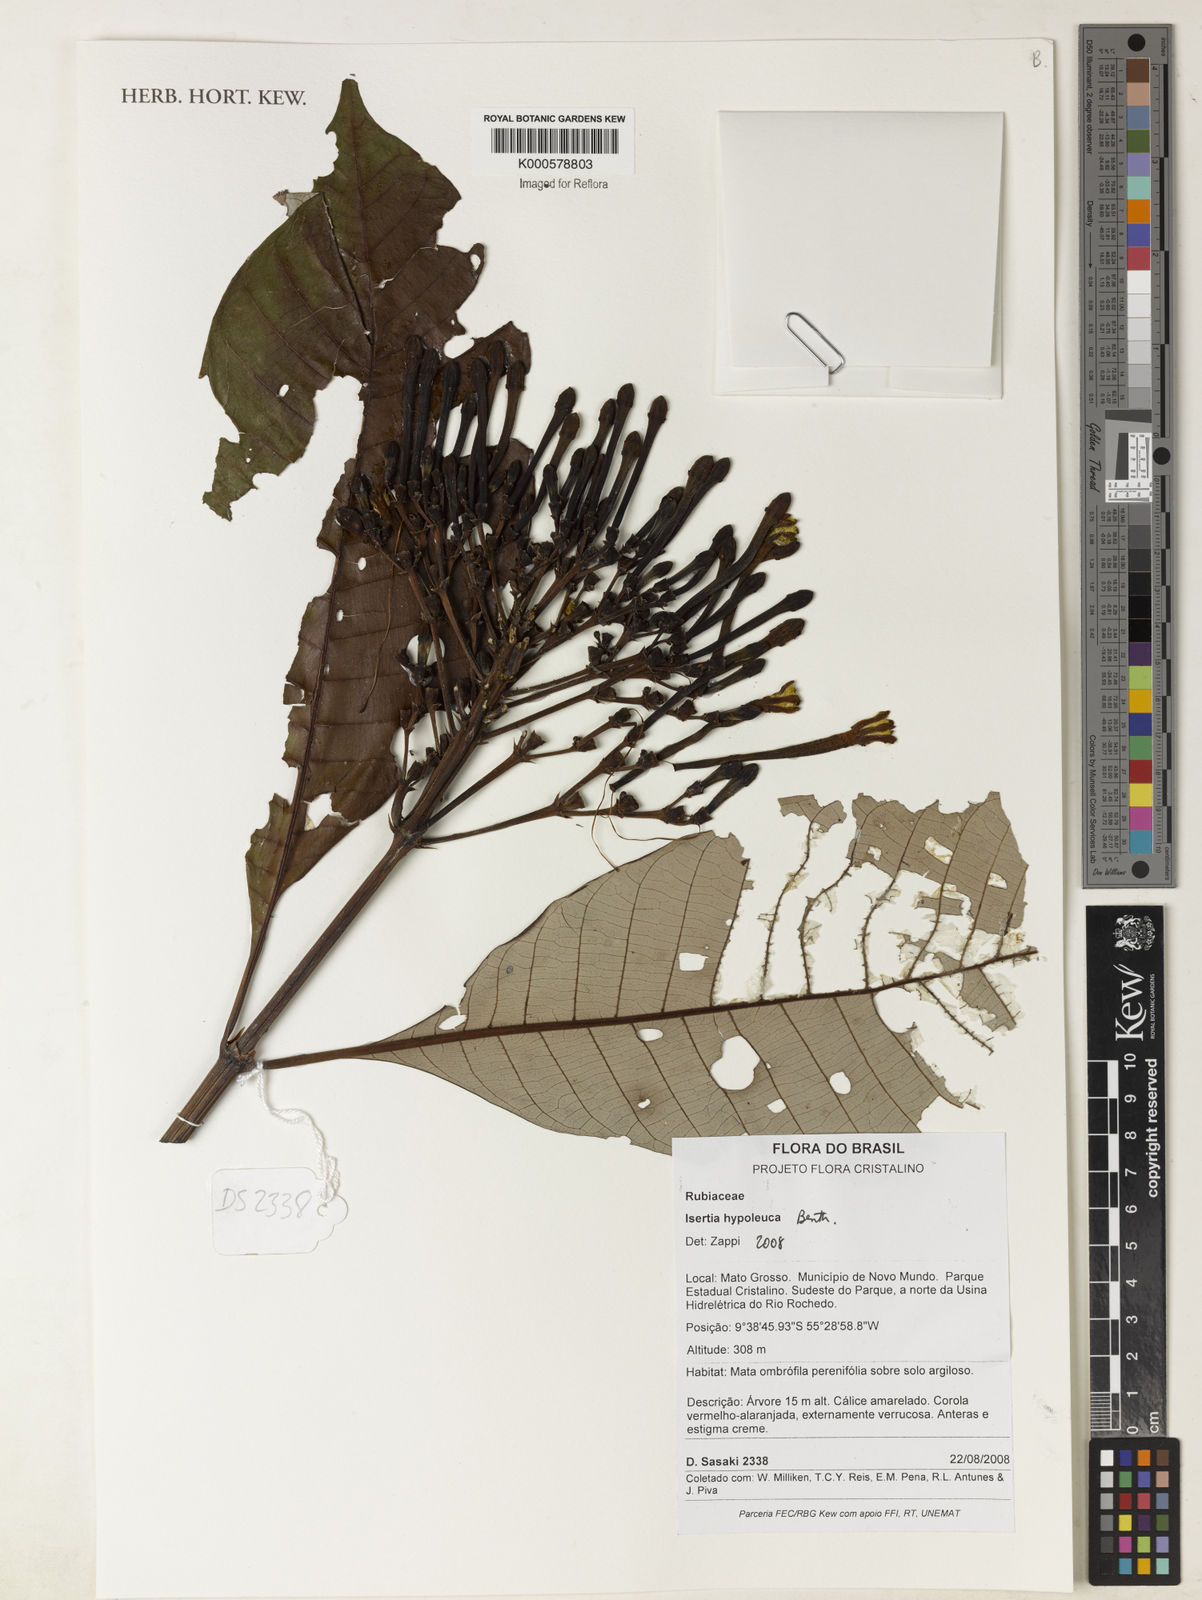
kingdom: Plantae
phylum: Tracheophyta
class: Magnoliopsida
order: Gentianales
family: Rubiaceae
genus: Isertia
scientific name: Isertia hypoleuca
